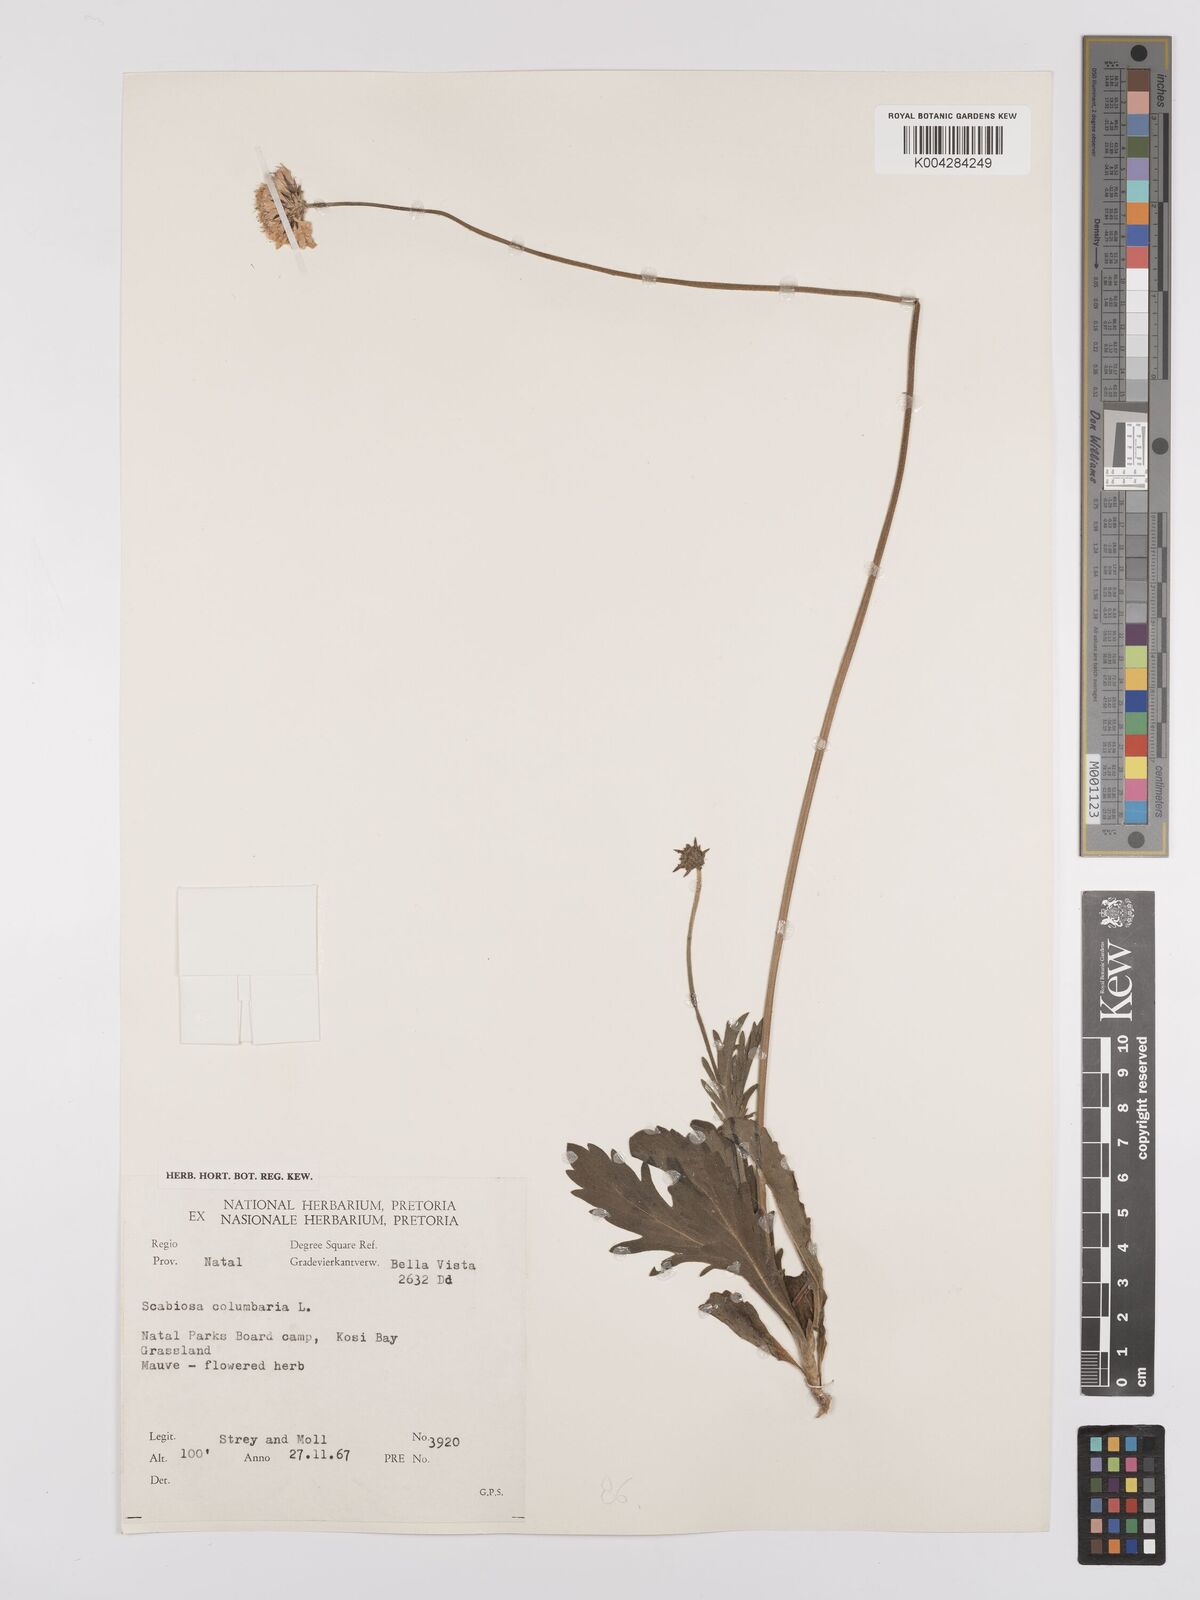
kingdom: Plantae
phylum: Tracheophyta
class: Magnoliopsida
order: Dipsacales
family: Caprifoliaceae
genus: Scabiosa
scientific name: Scabiosa columbaria
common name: Small scabious
